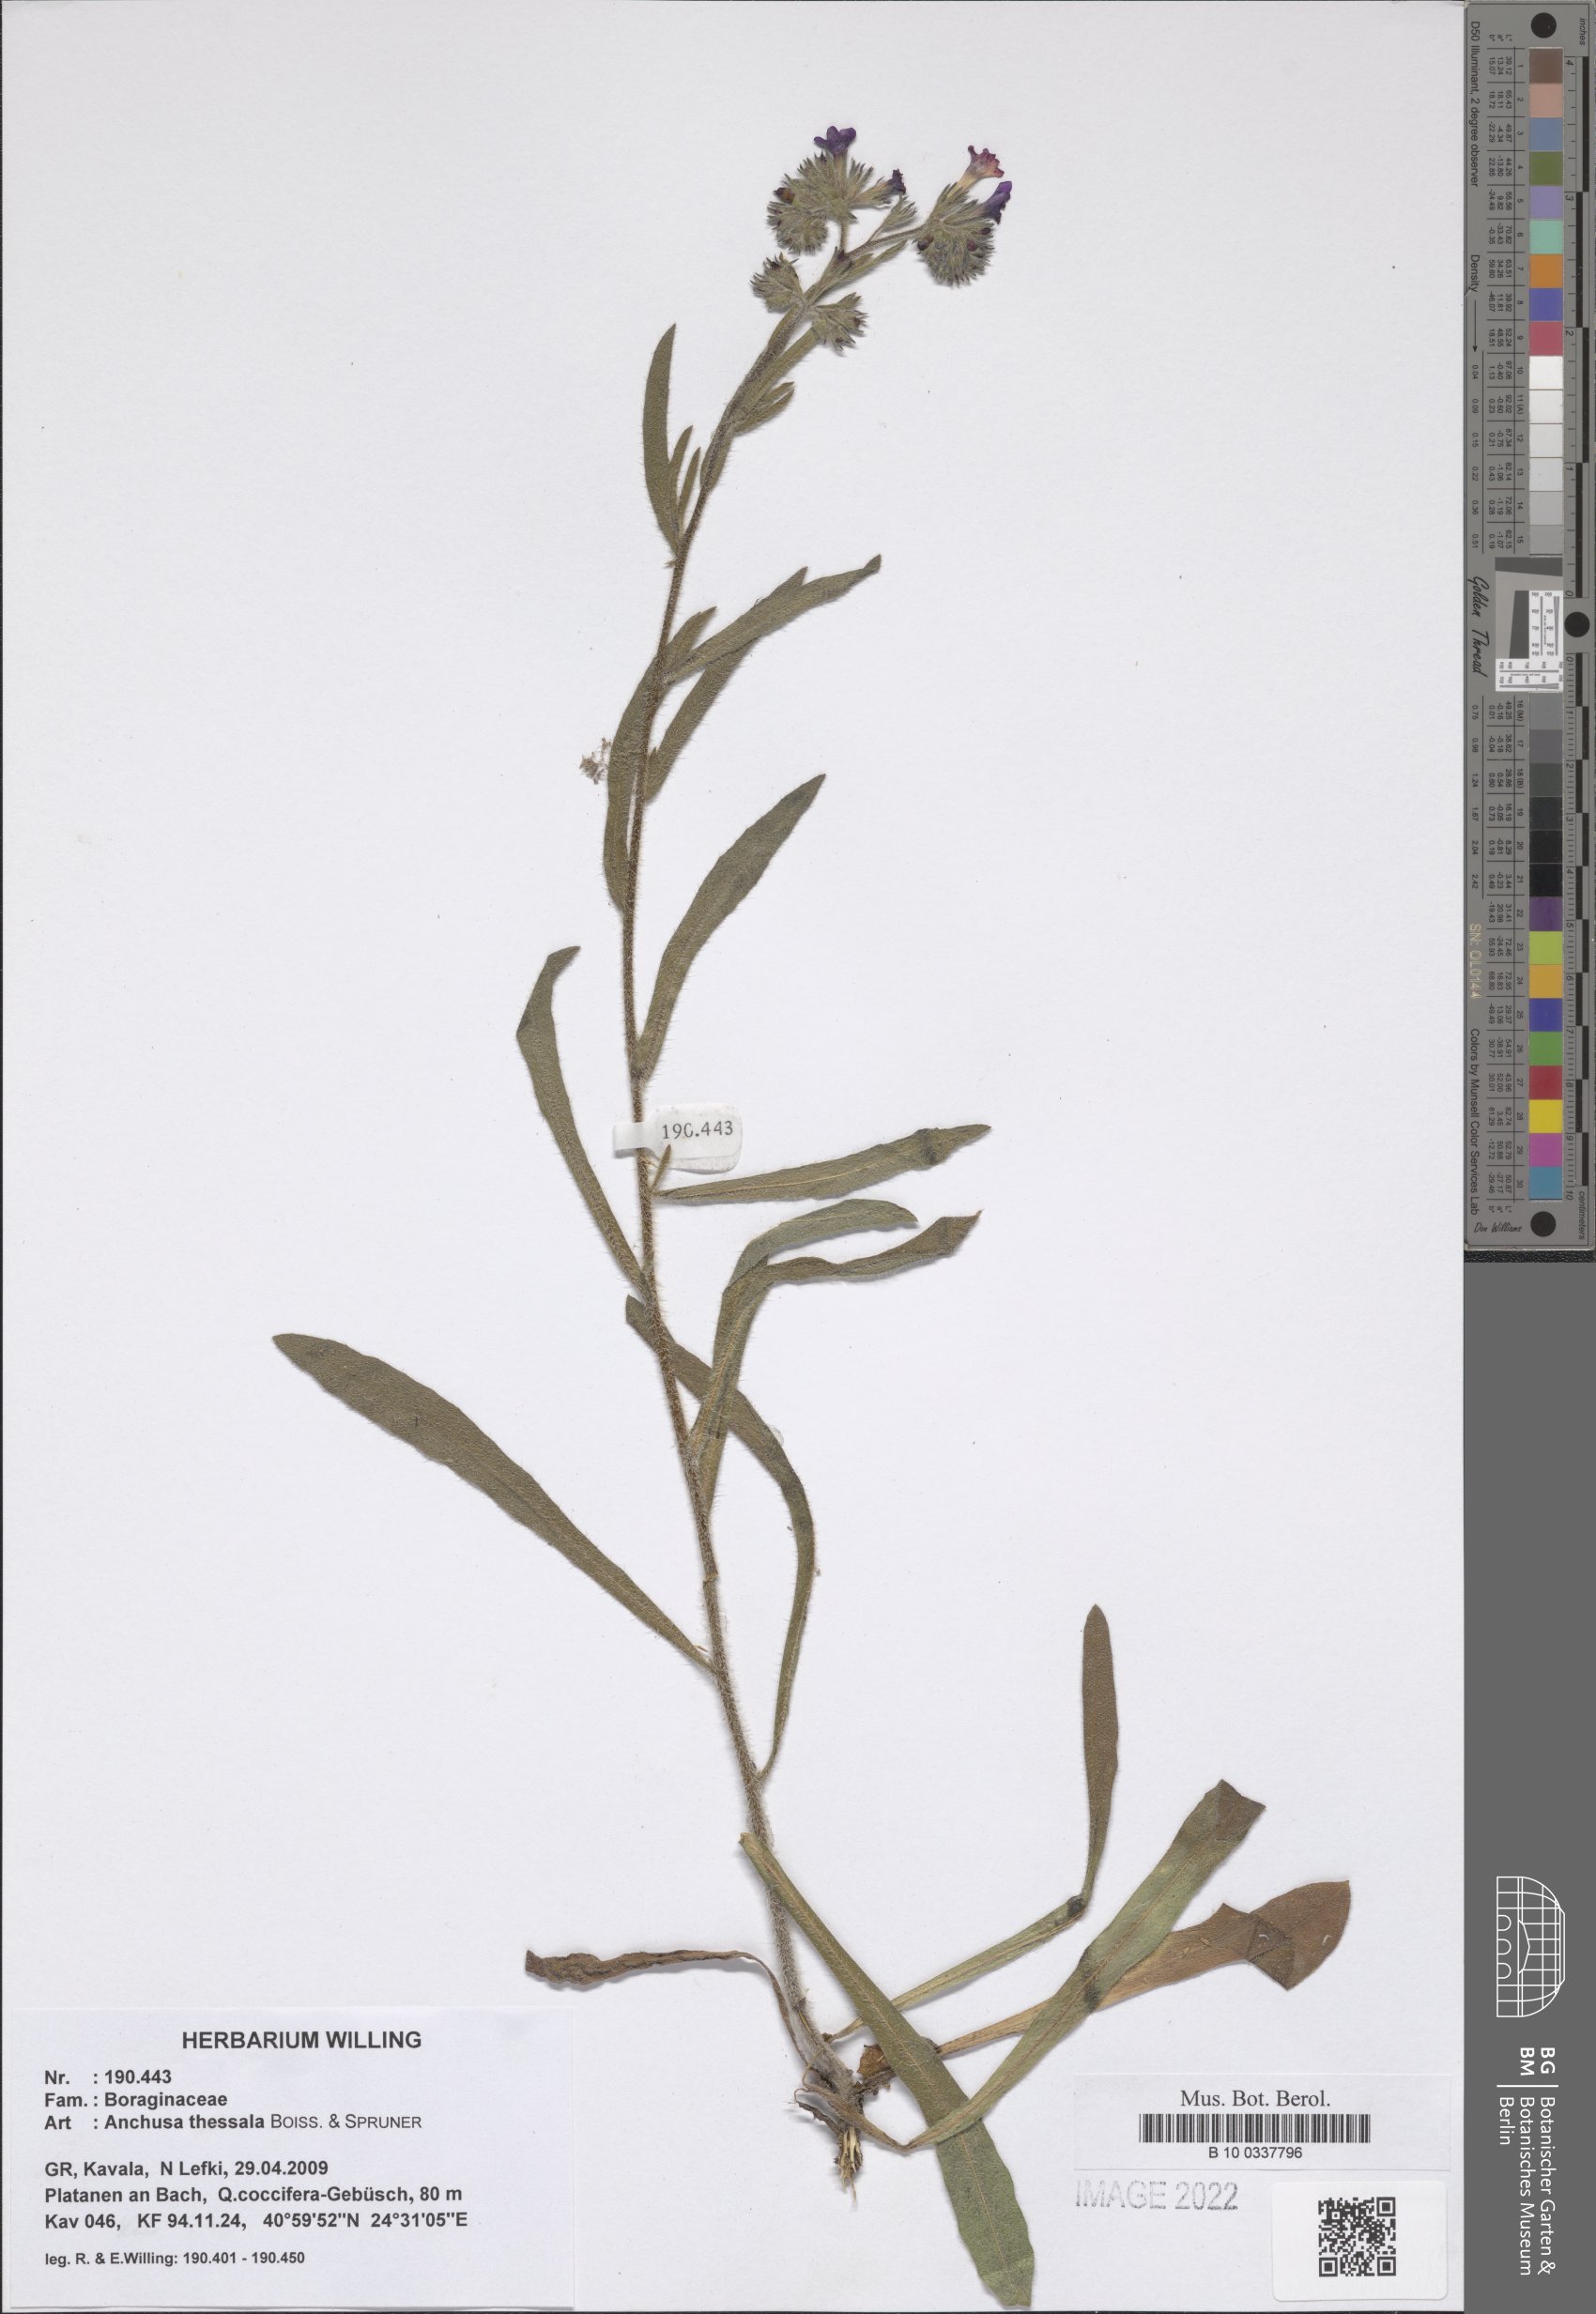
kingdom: Plantae
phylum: Tracheophyta
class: Magnoliopsida
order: Boraginales
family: Boraginaceae
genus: Anchusa
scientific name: Anchusa thessala
